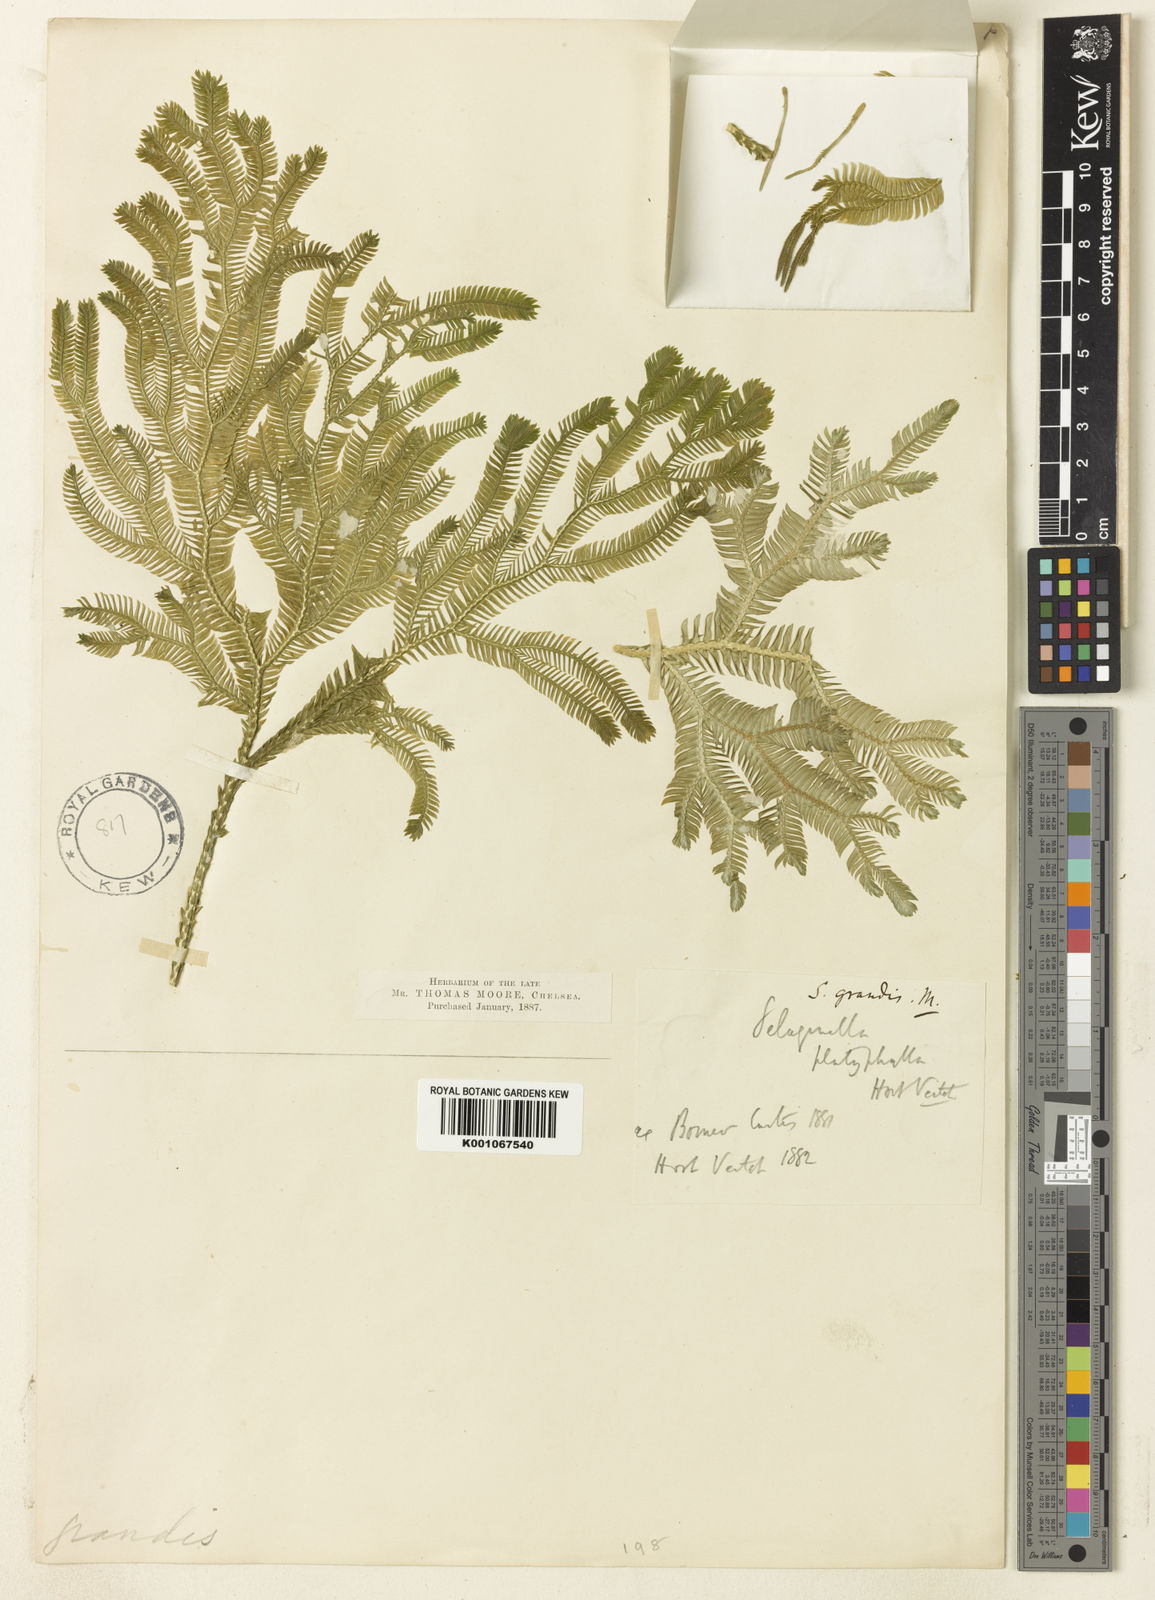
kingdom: Plantae
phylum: Tracheophyta
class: Lycopodiopsida
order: Selaginellales
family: Selaginellaceae
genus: Selaginella
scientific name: Selaginella grandis
